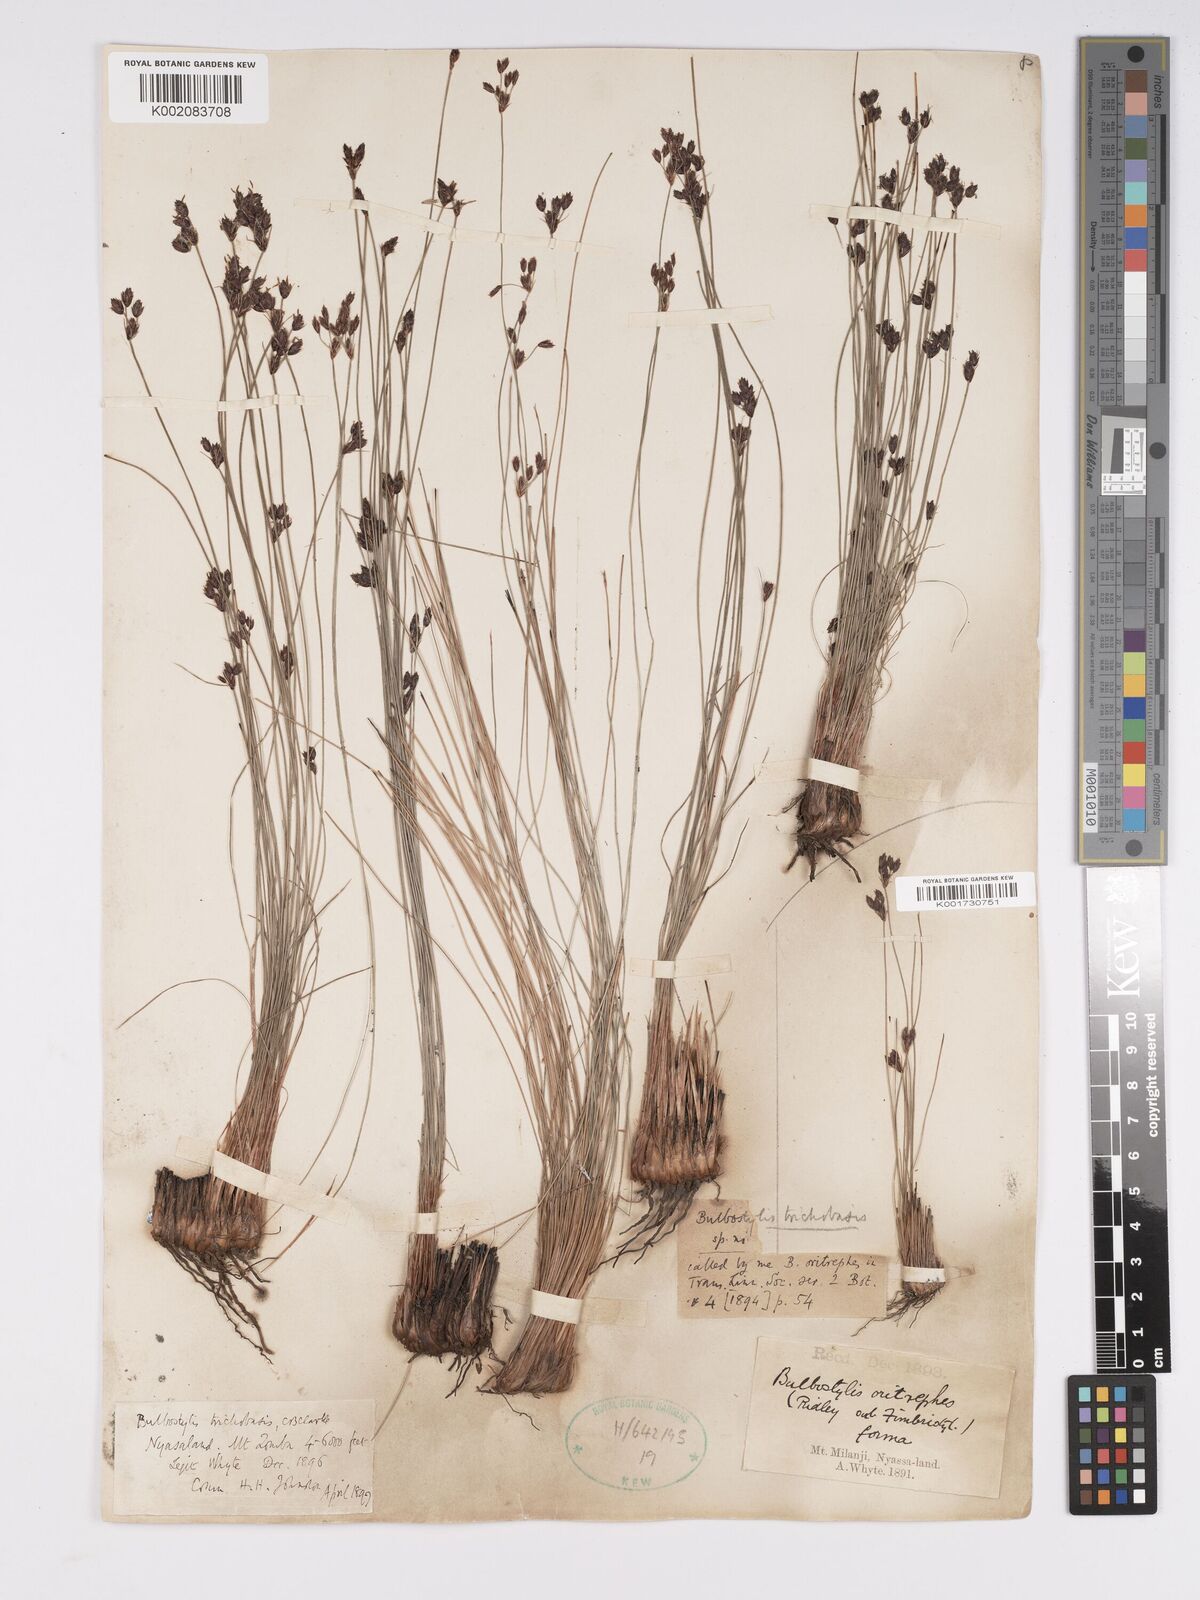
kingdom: Plantae
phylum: Tracheophyta
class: Liliopsida
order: Poales
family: Cyperaceae
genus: Bulbostylis
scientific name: Bulbostylis trichobasis
